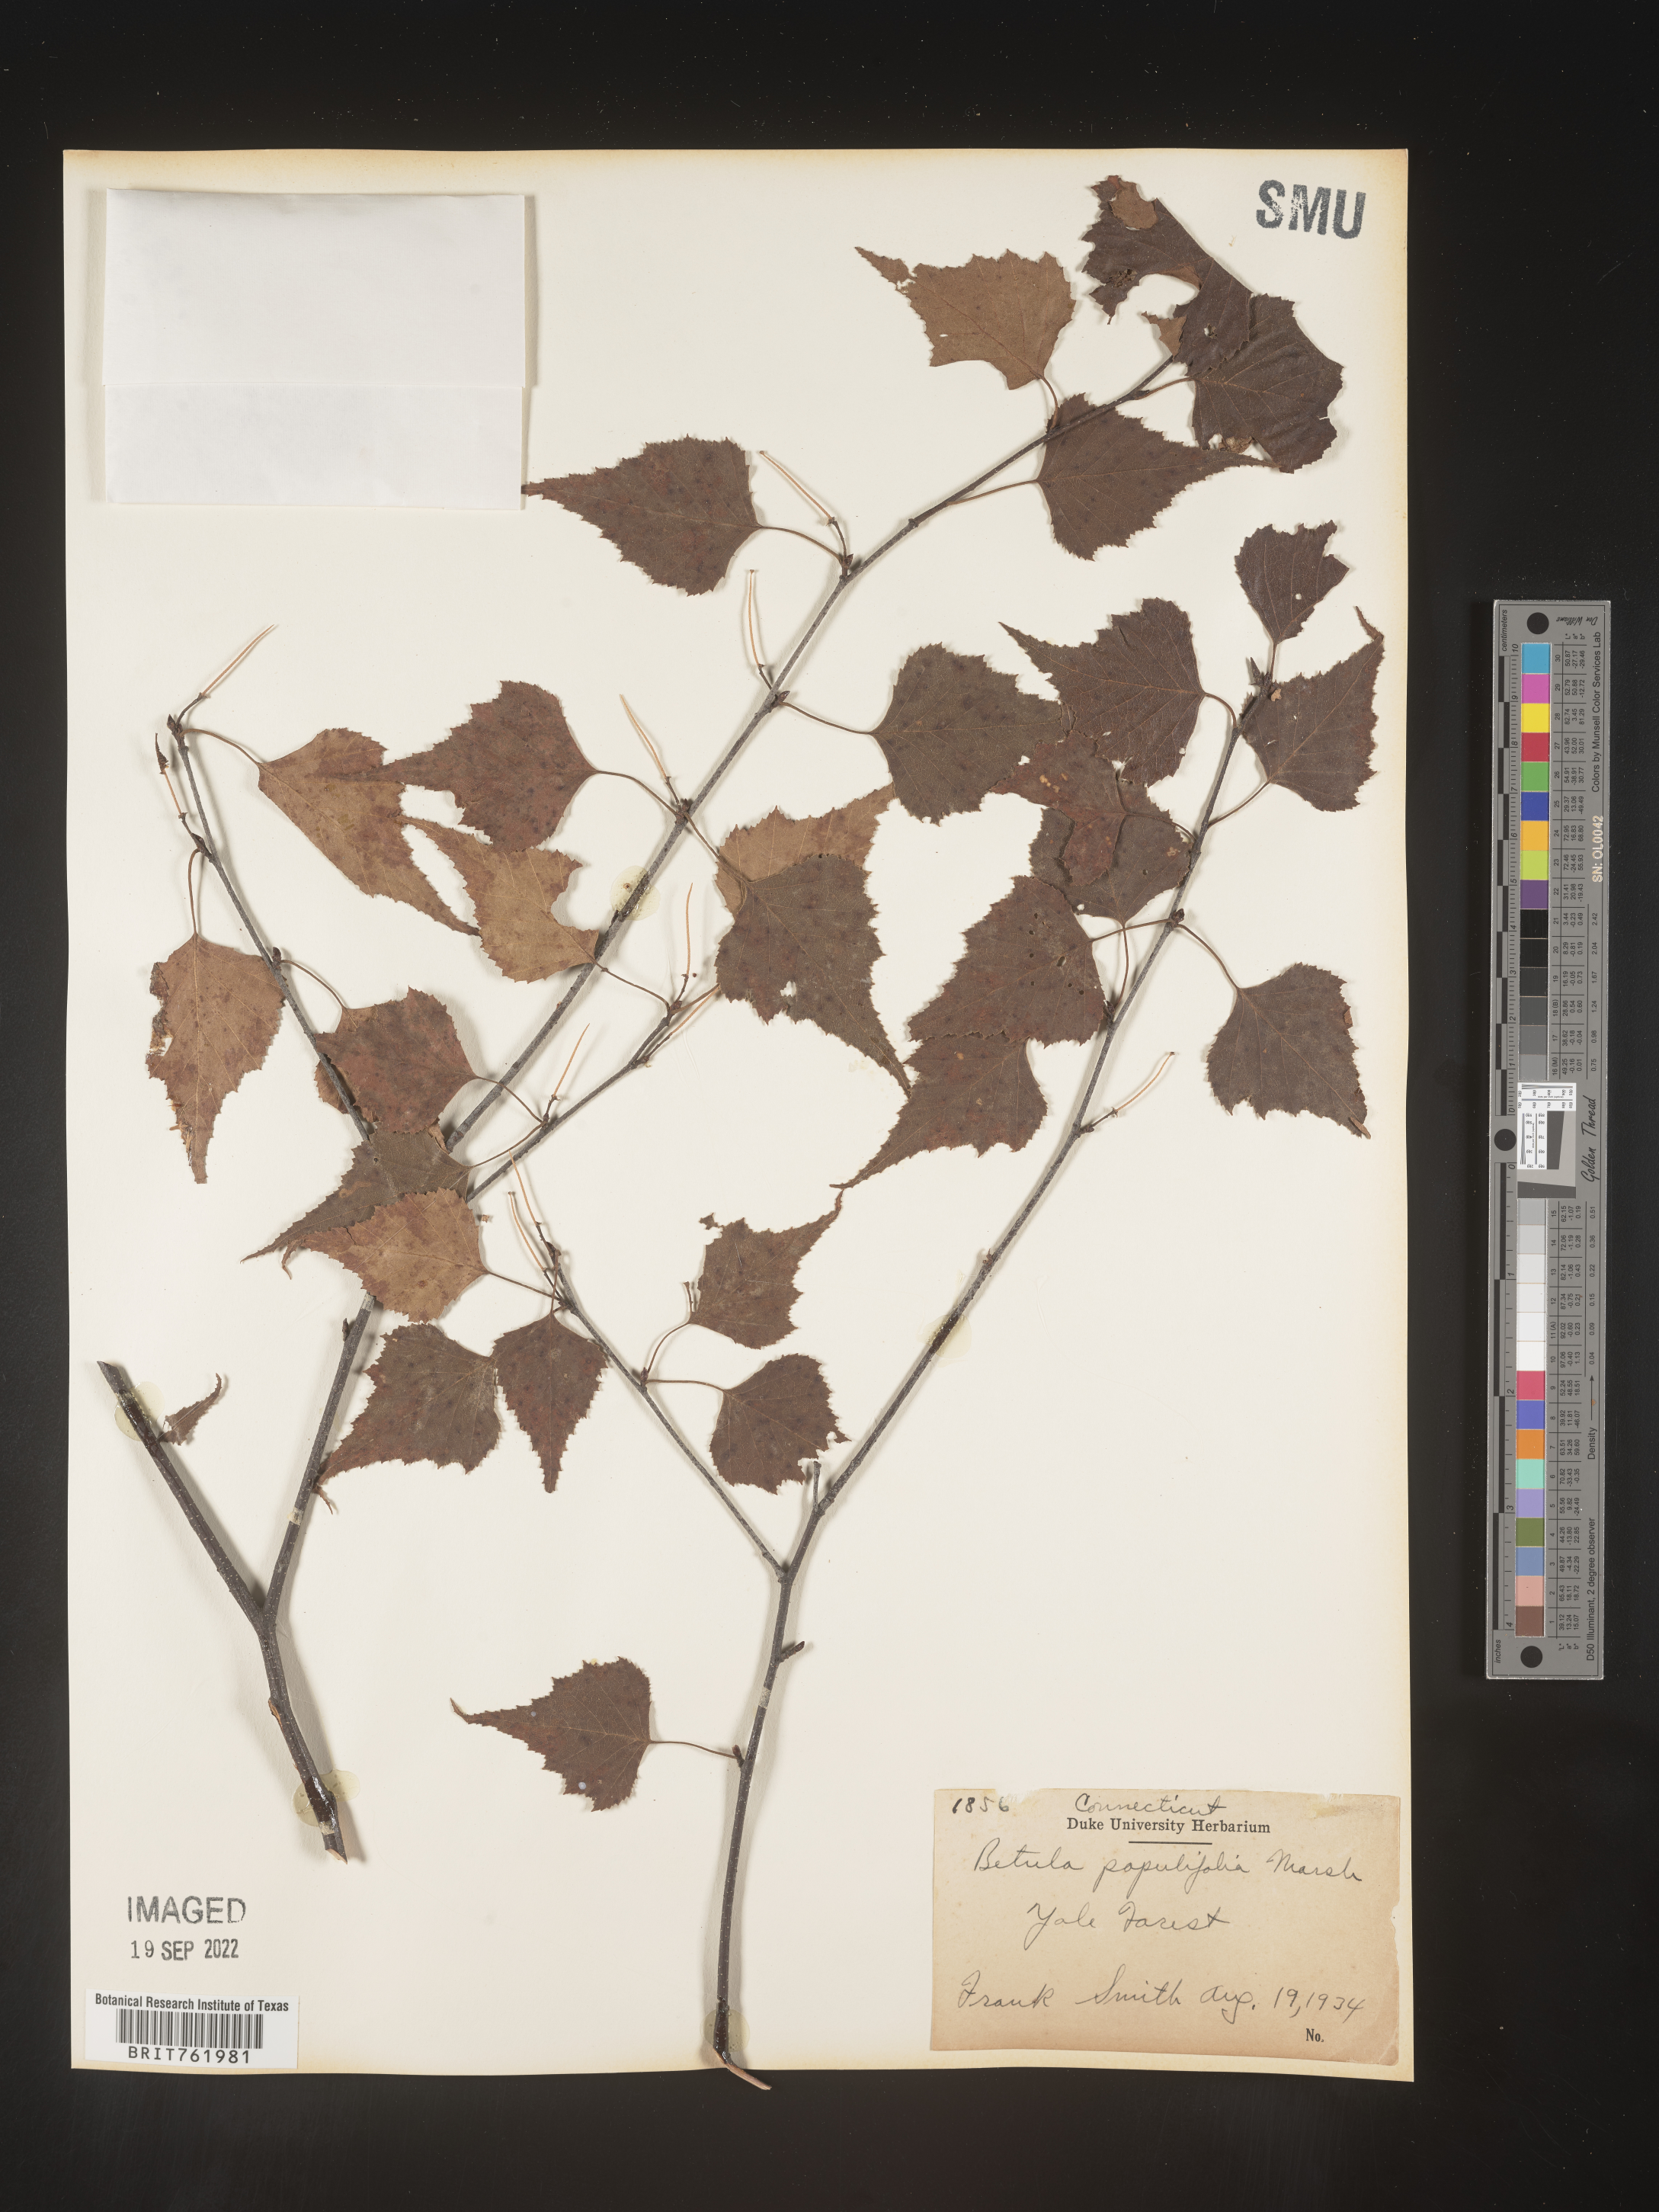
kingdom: Plantae
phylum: Tracheophyta
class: Magnoliopsida
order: Fagales
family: Betulaceae
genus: Betula
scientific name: Betula populifolia
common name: Fire birch
